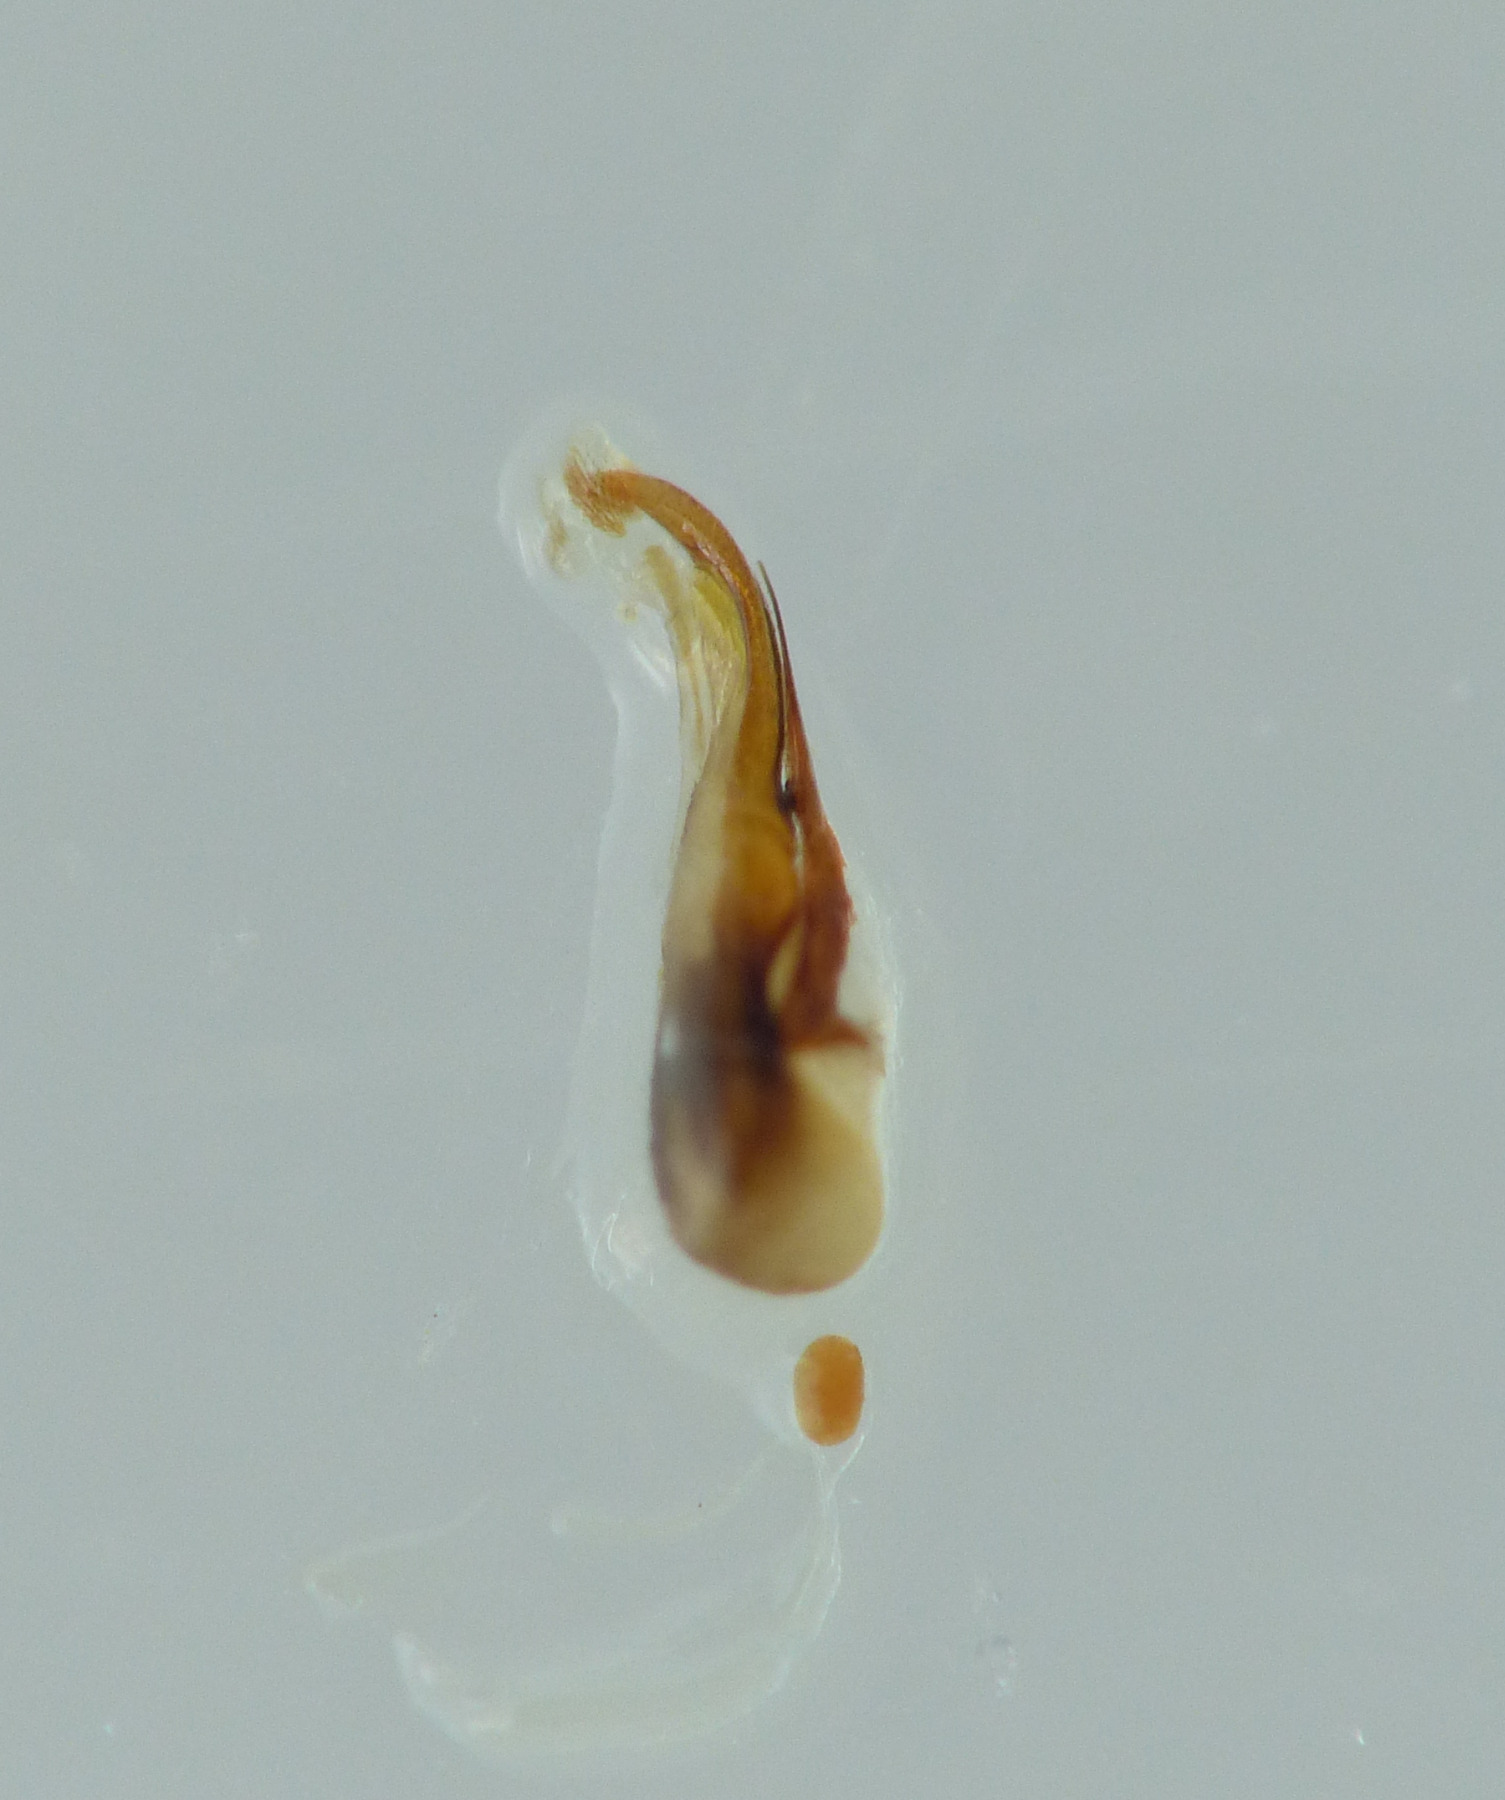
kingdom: Animalia
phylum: Arthropoda
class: Insecta
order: Coleoptera
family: Staphylinidae
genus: Philonthus
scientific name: Philonthus umbratilis
